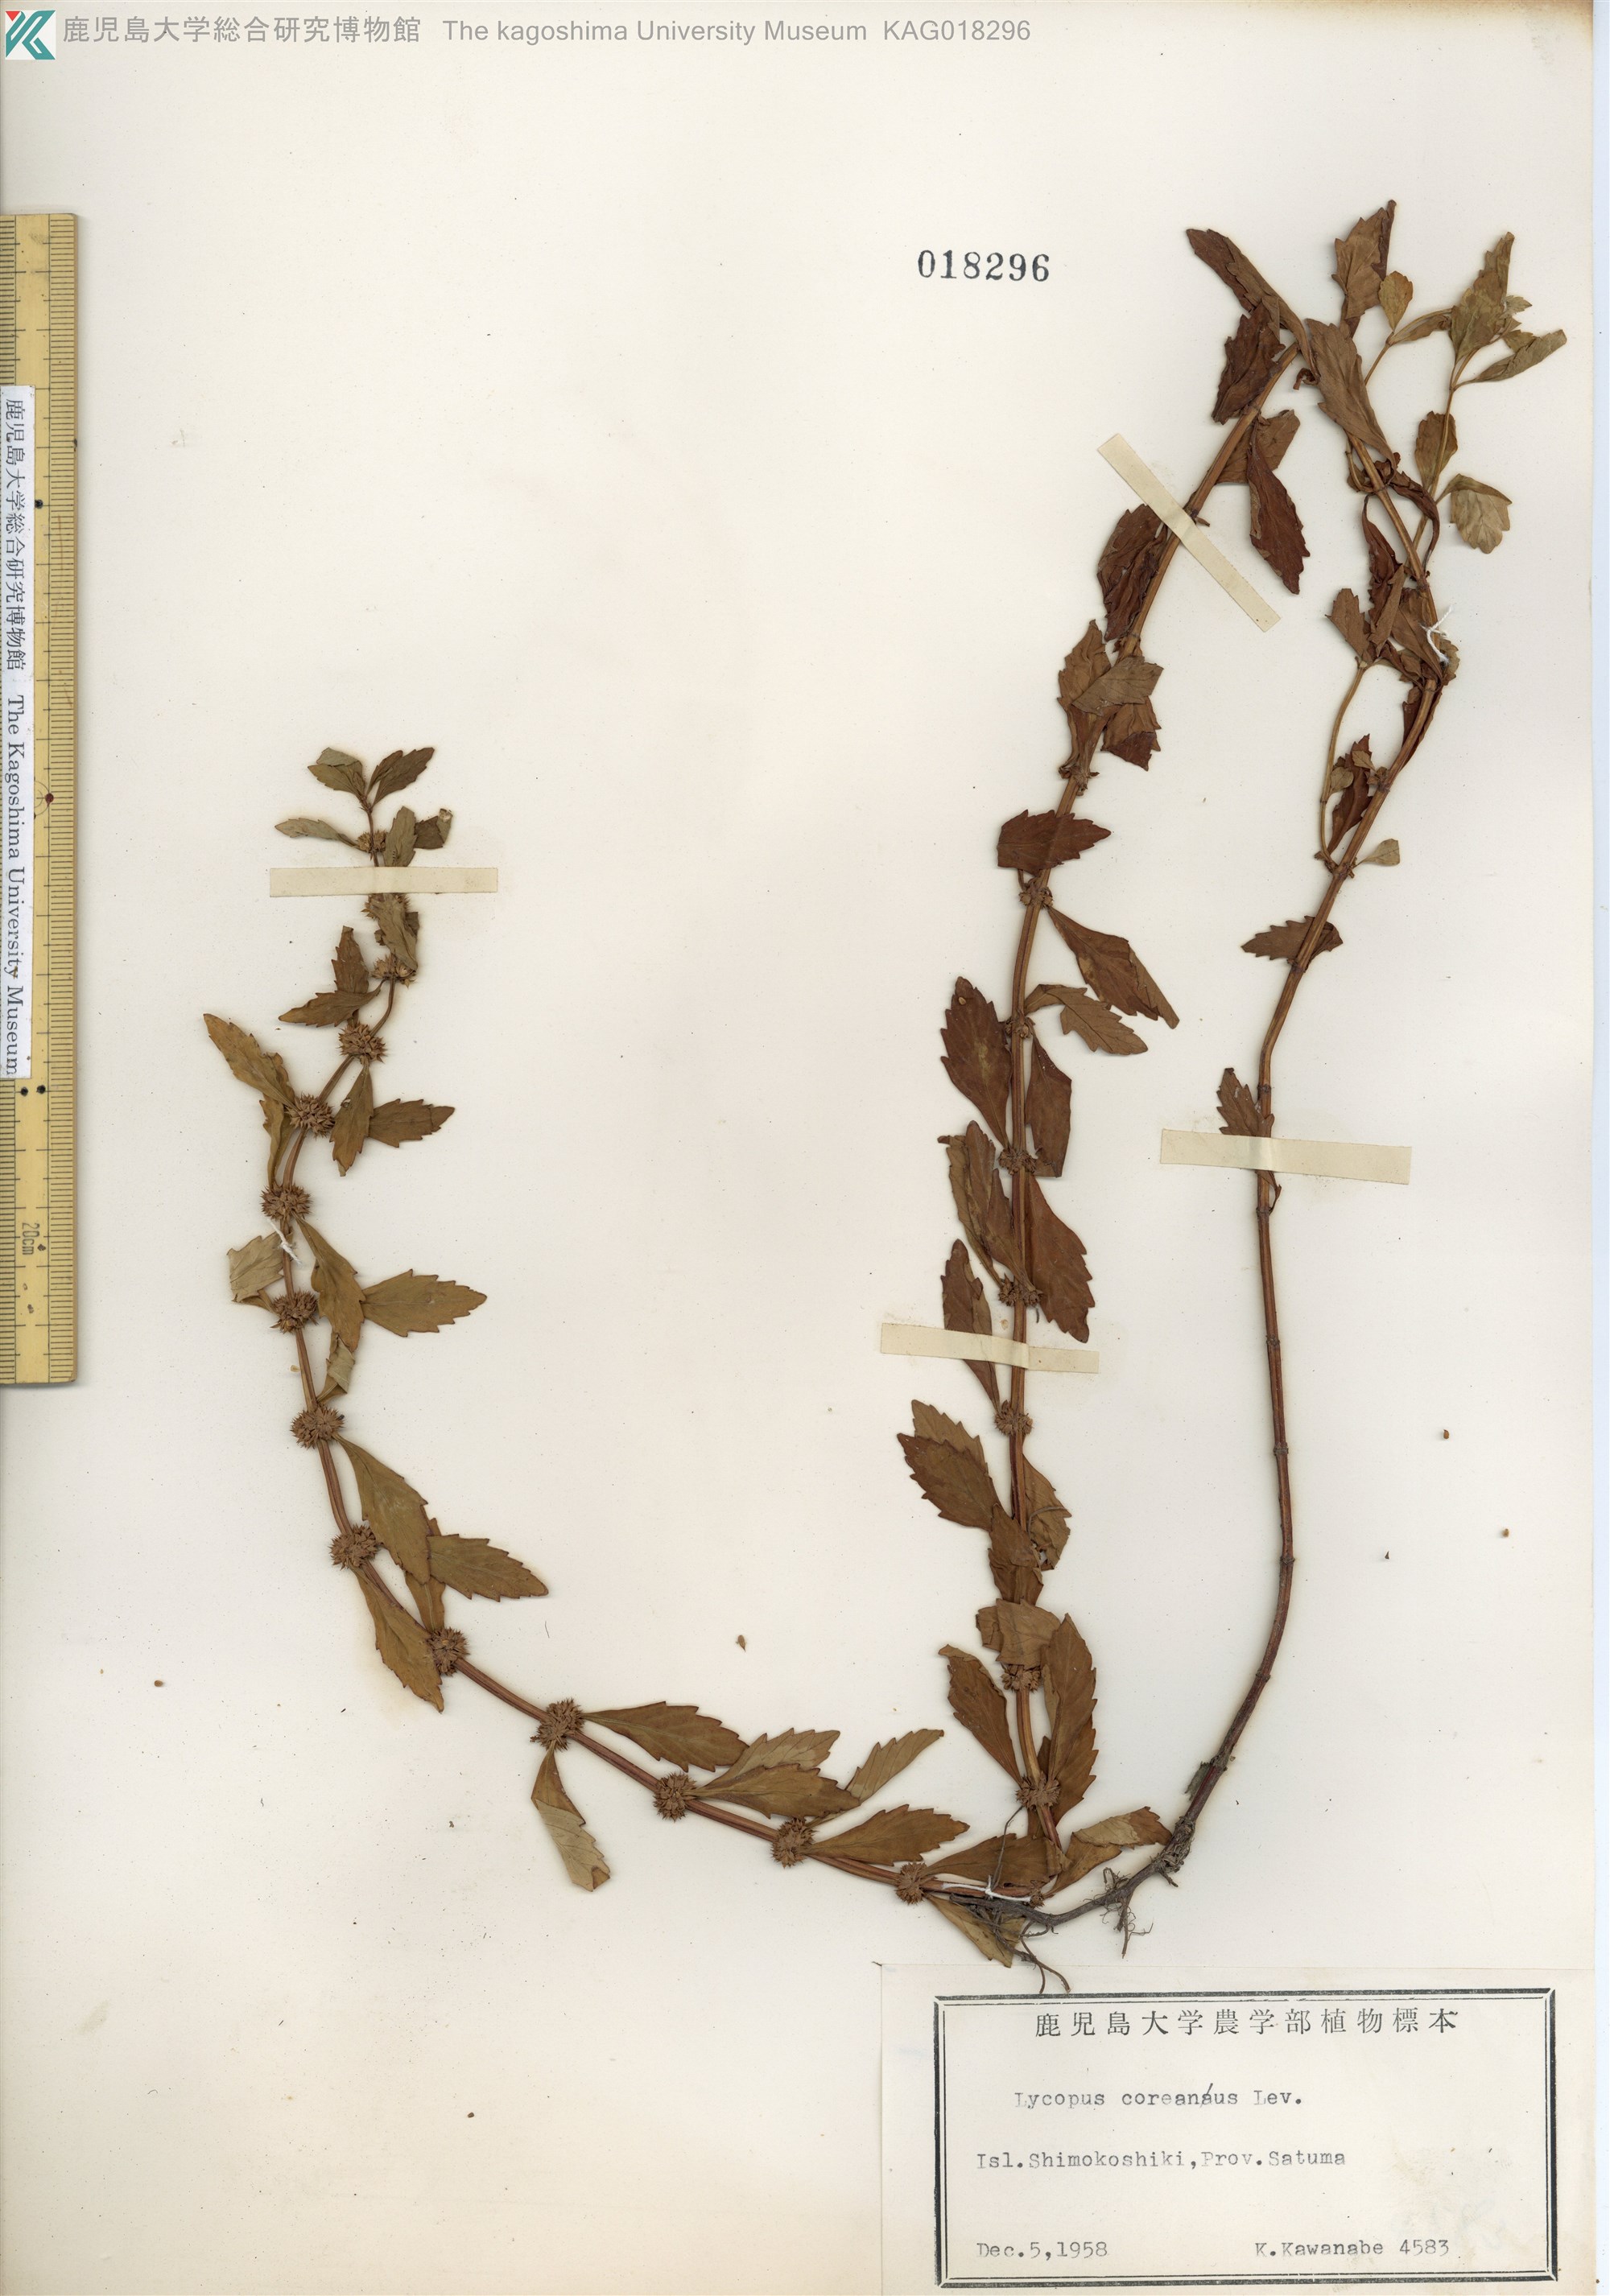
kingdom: Plantae
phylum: Tracheophyta
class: Magnoliopsida
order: Lamiales
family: Lamiaceae
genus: Lycopus
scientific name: Lycopus cavaleriei
